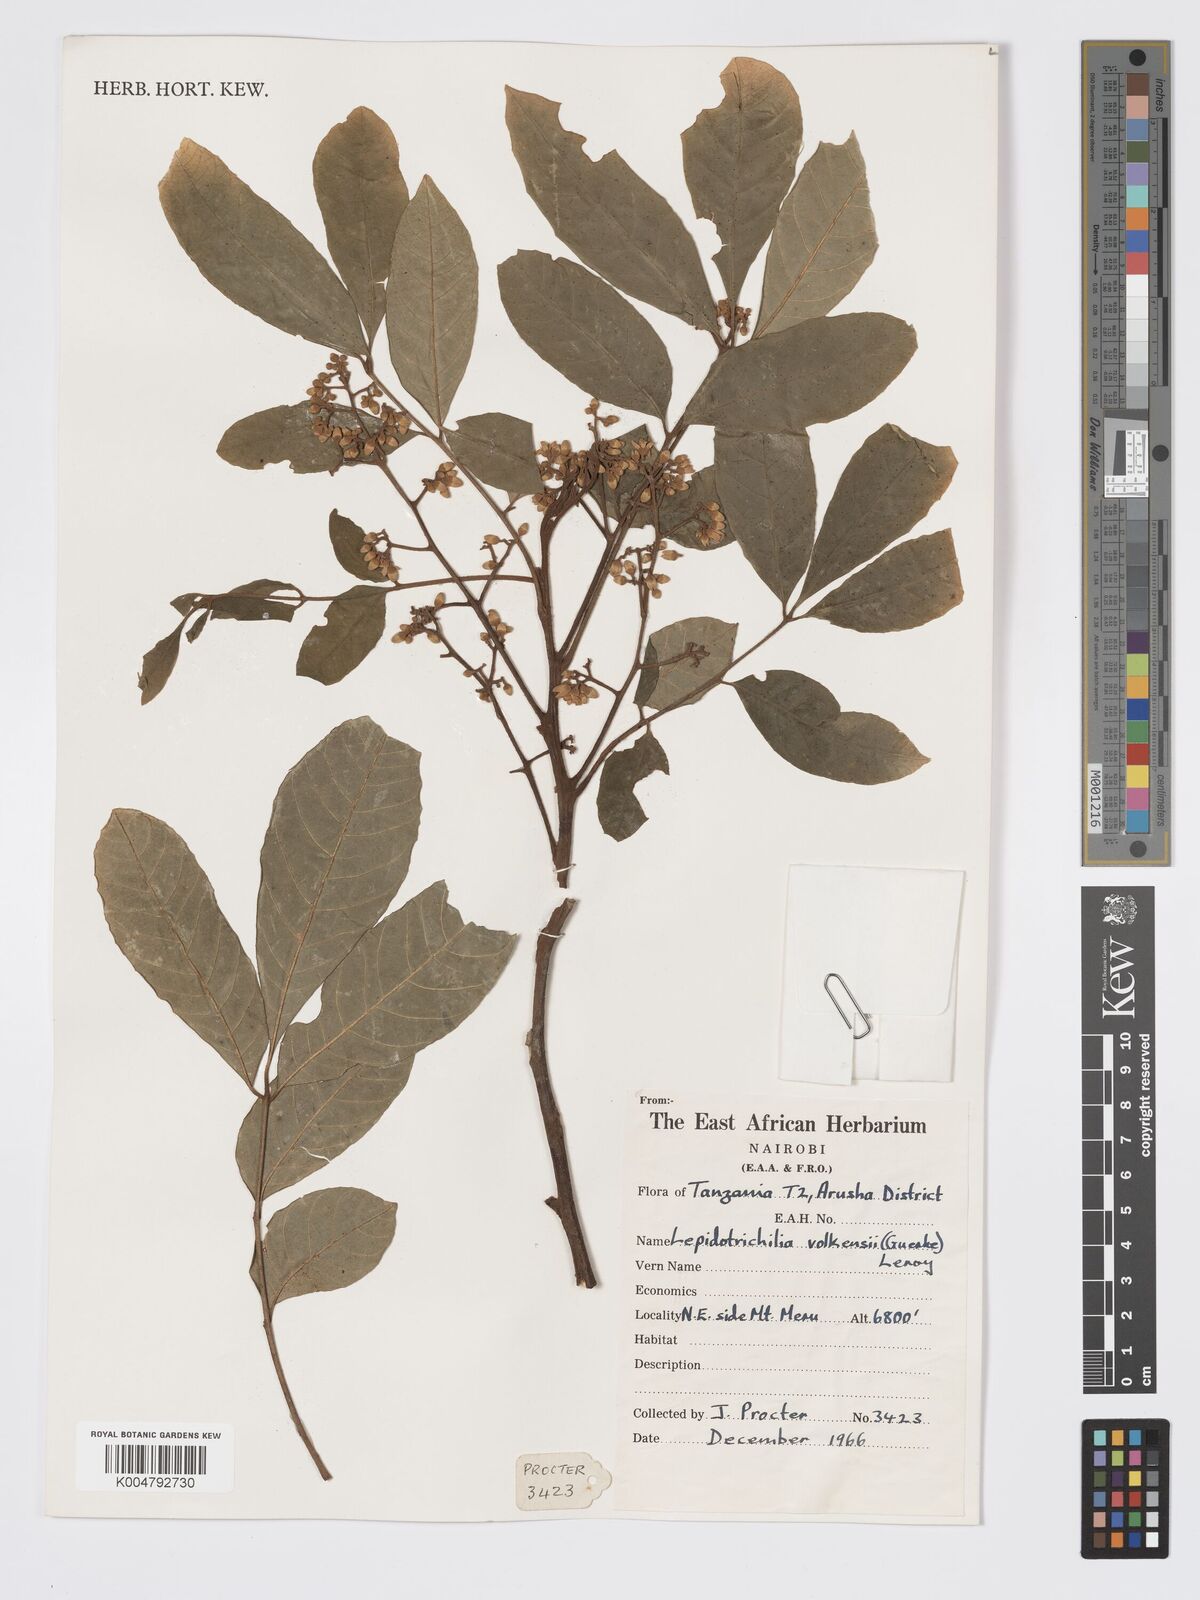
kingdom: Plantae
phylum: Tracheophyta
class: Magnoliopsida
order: Sapindales
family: Meliaceae
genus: Lepidotrichilia
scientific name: Lepidotrichilia volkensii
